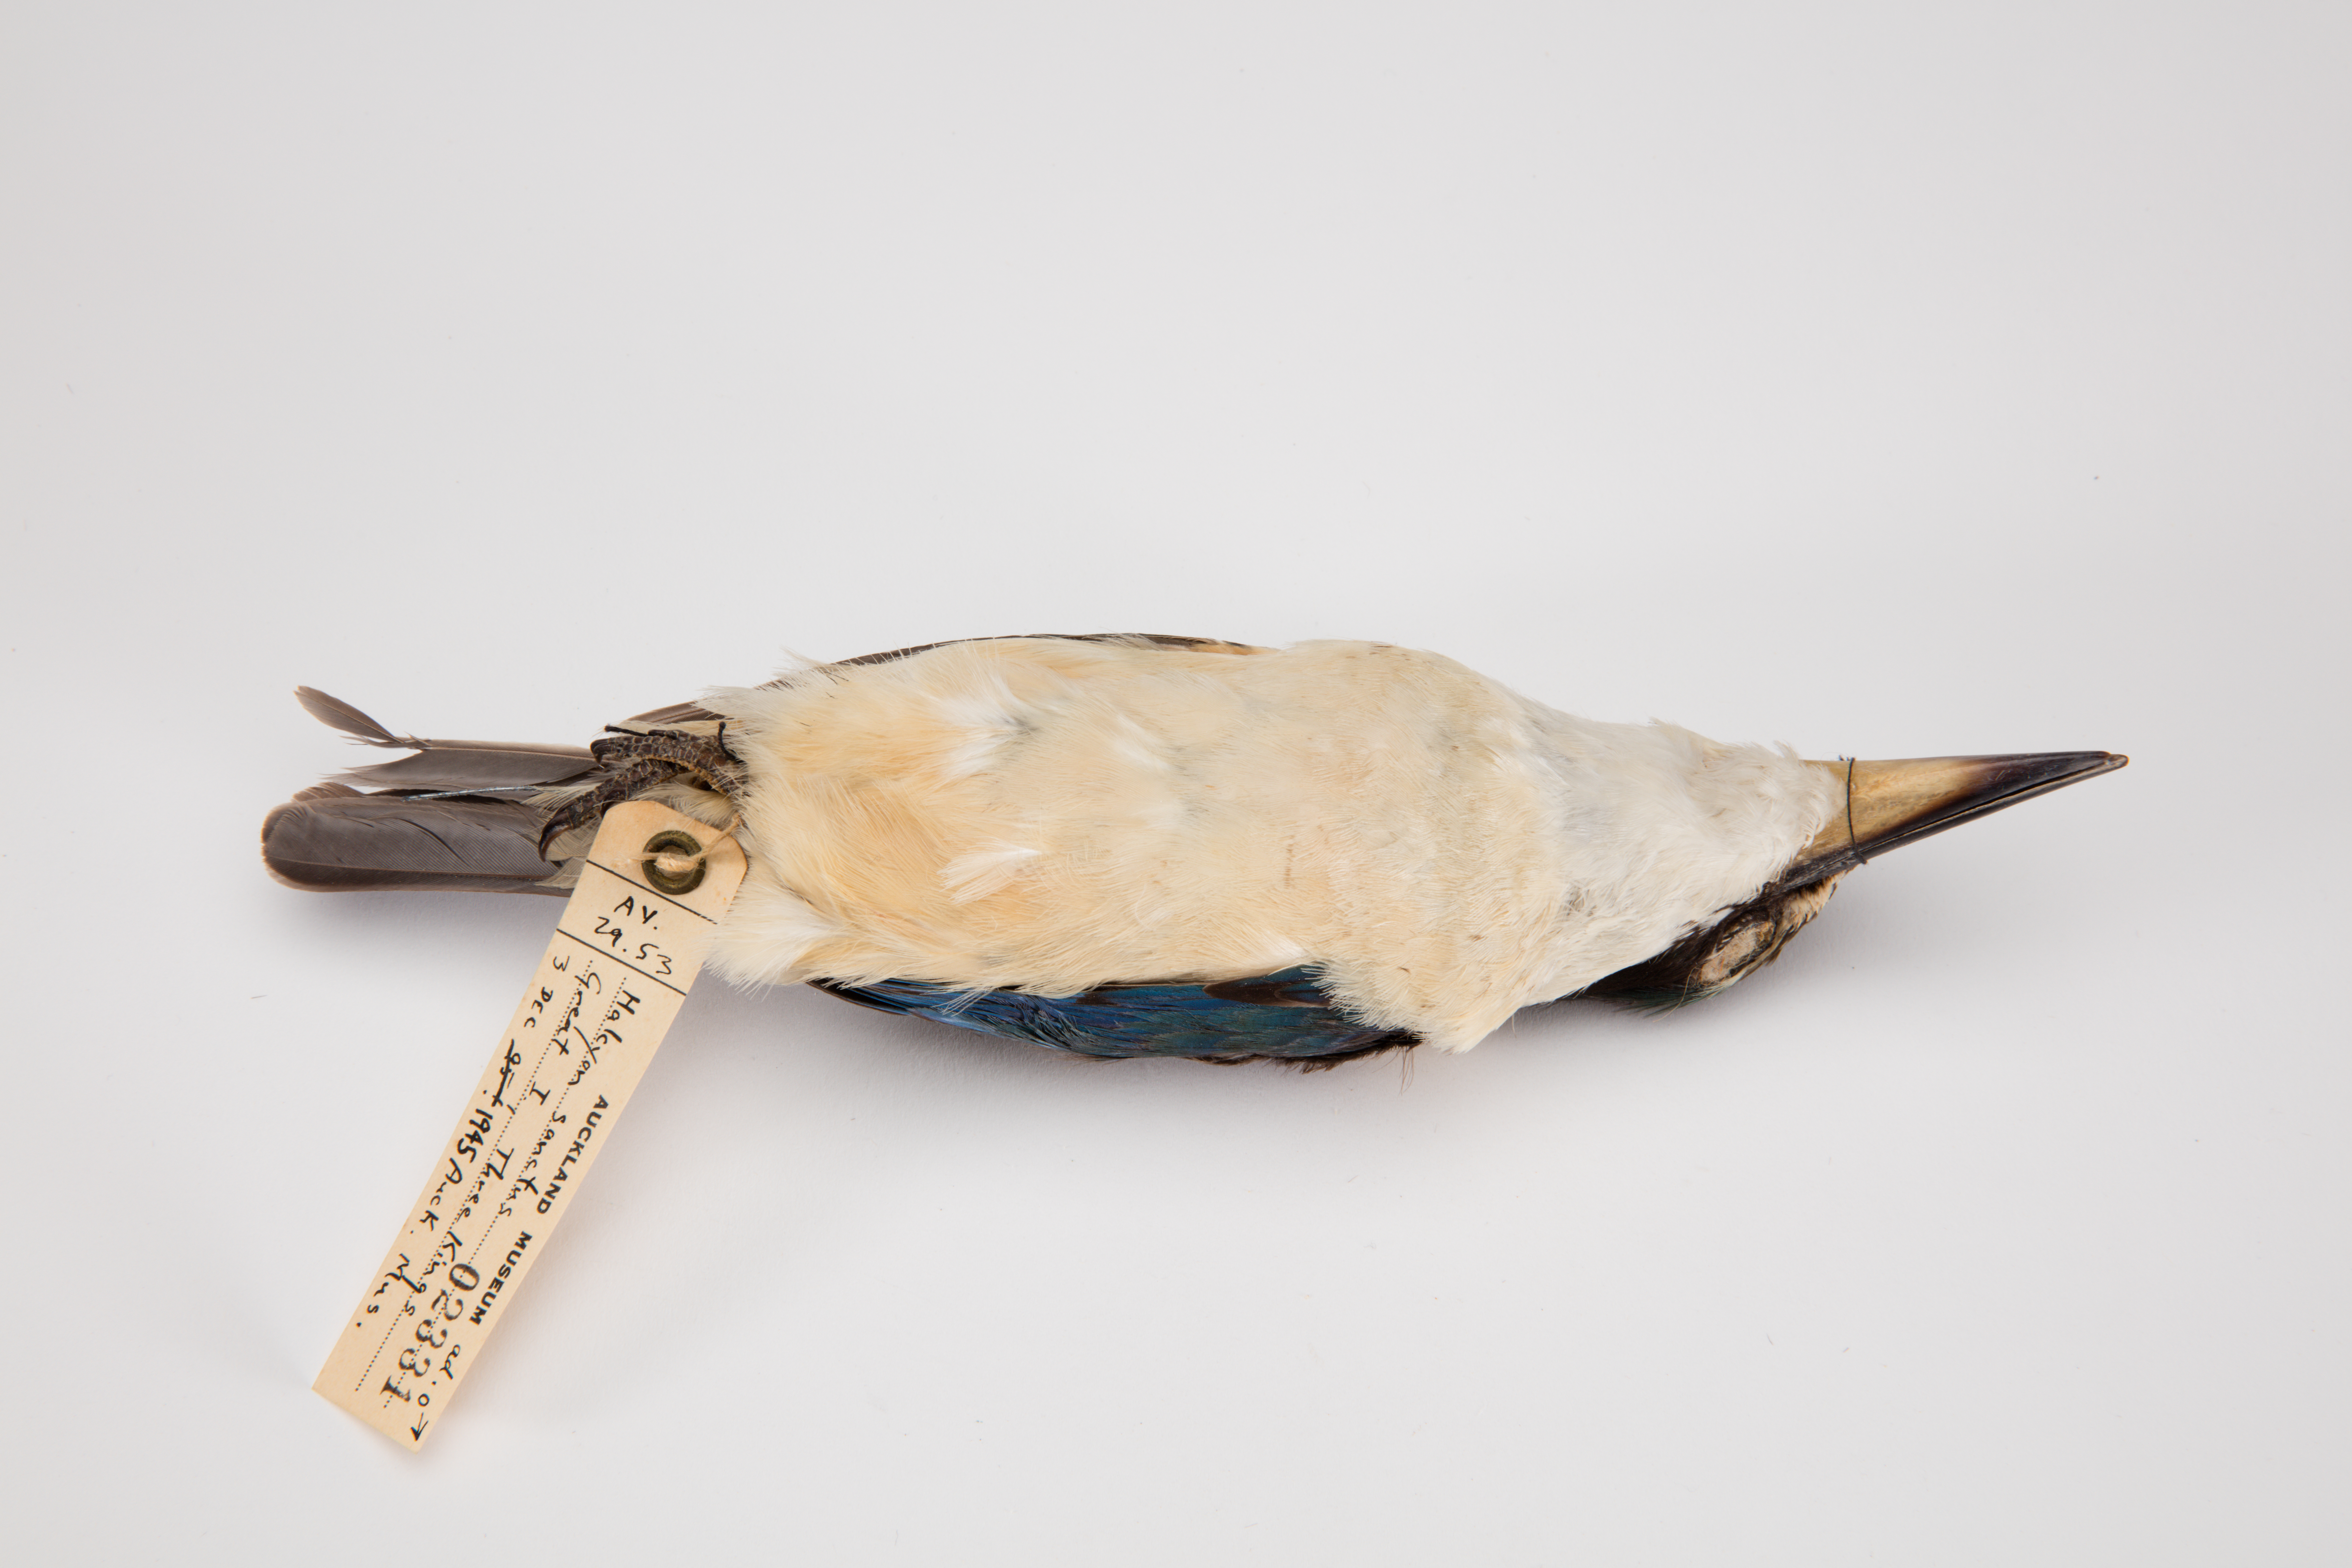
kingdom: Animalia
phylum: Chordata
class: Aves
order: Coraciiformes
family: Alcedinidae
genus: Todiramphus
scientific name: Todiramphus sanctus
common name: Sacred kingfisher
